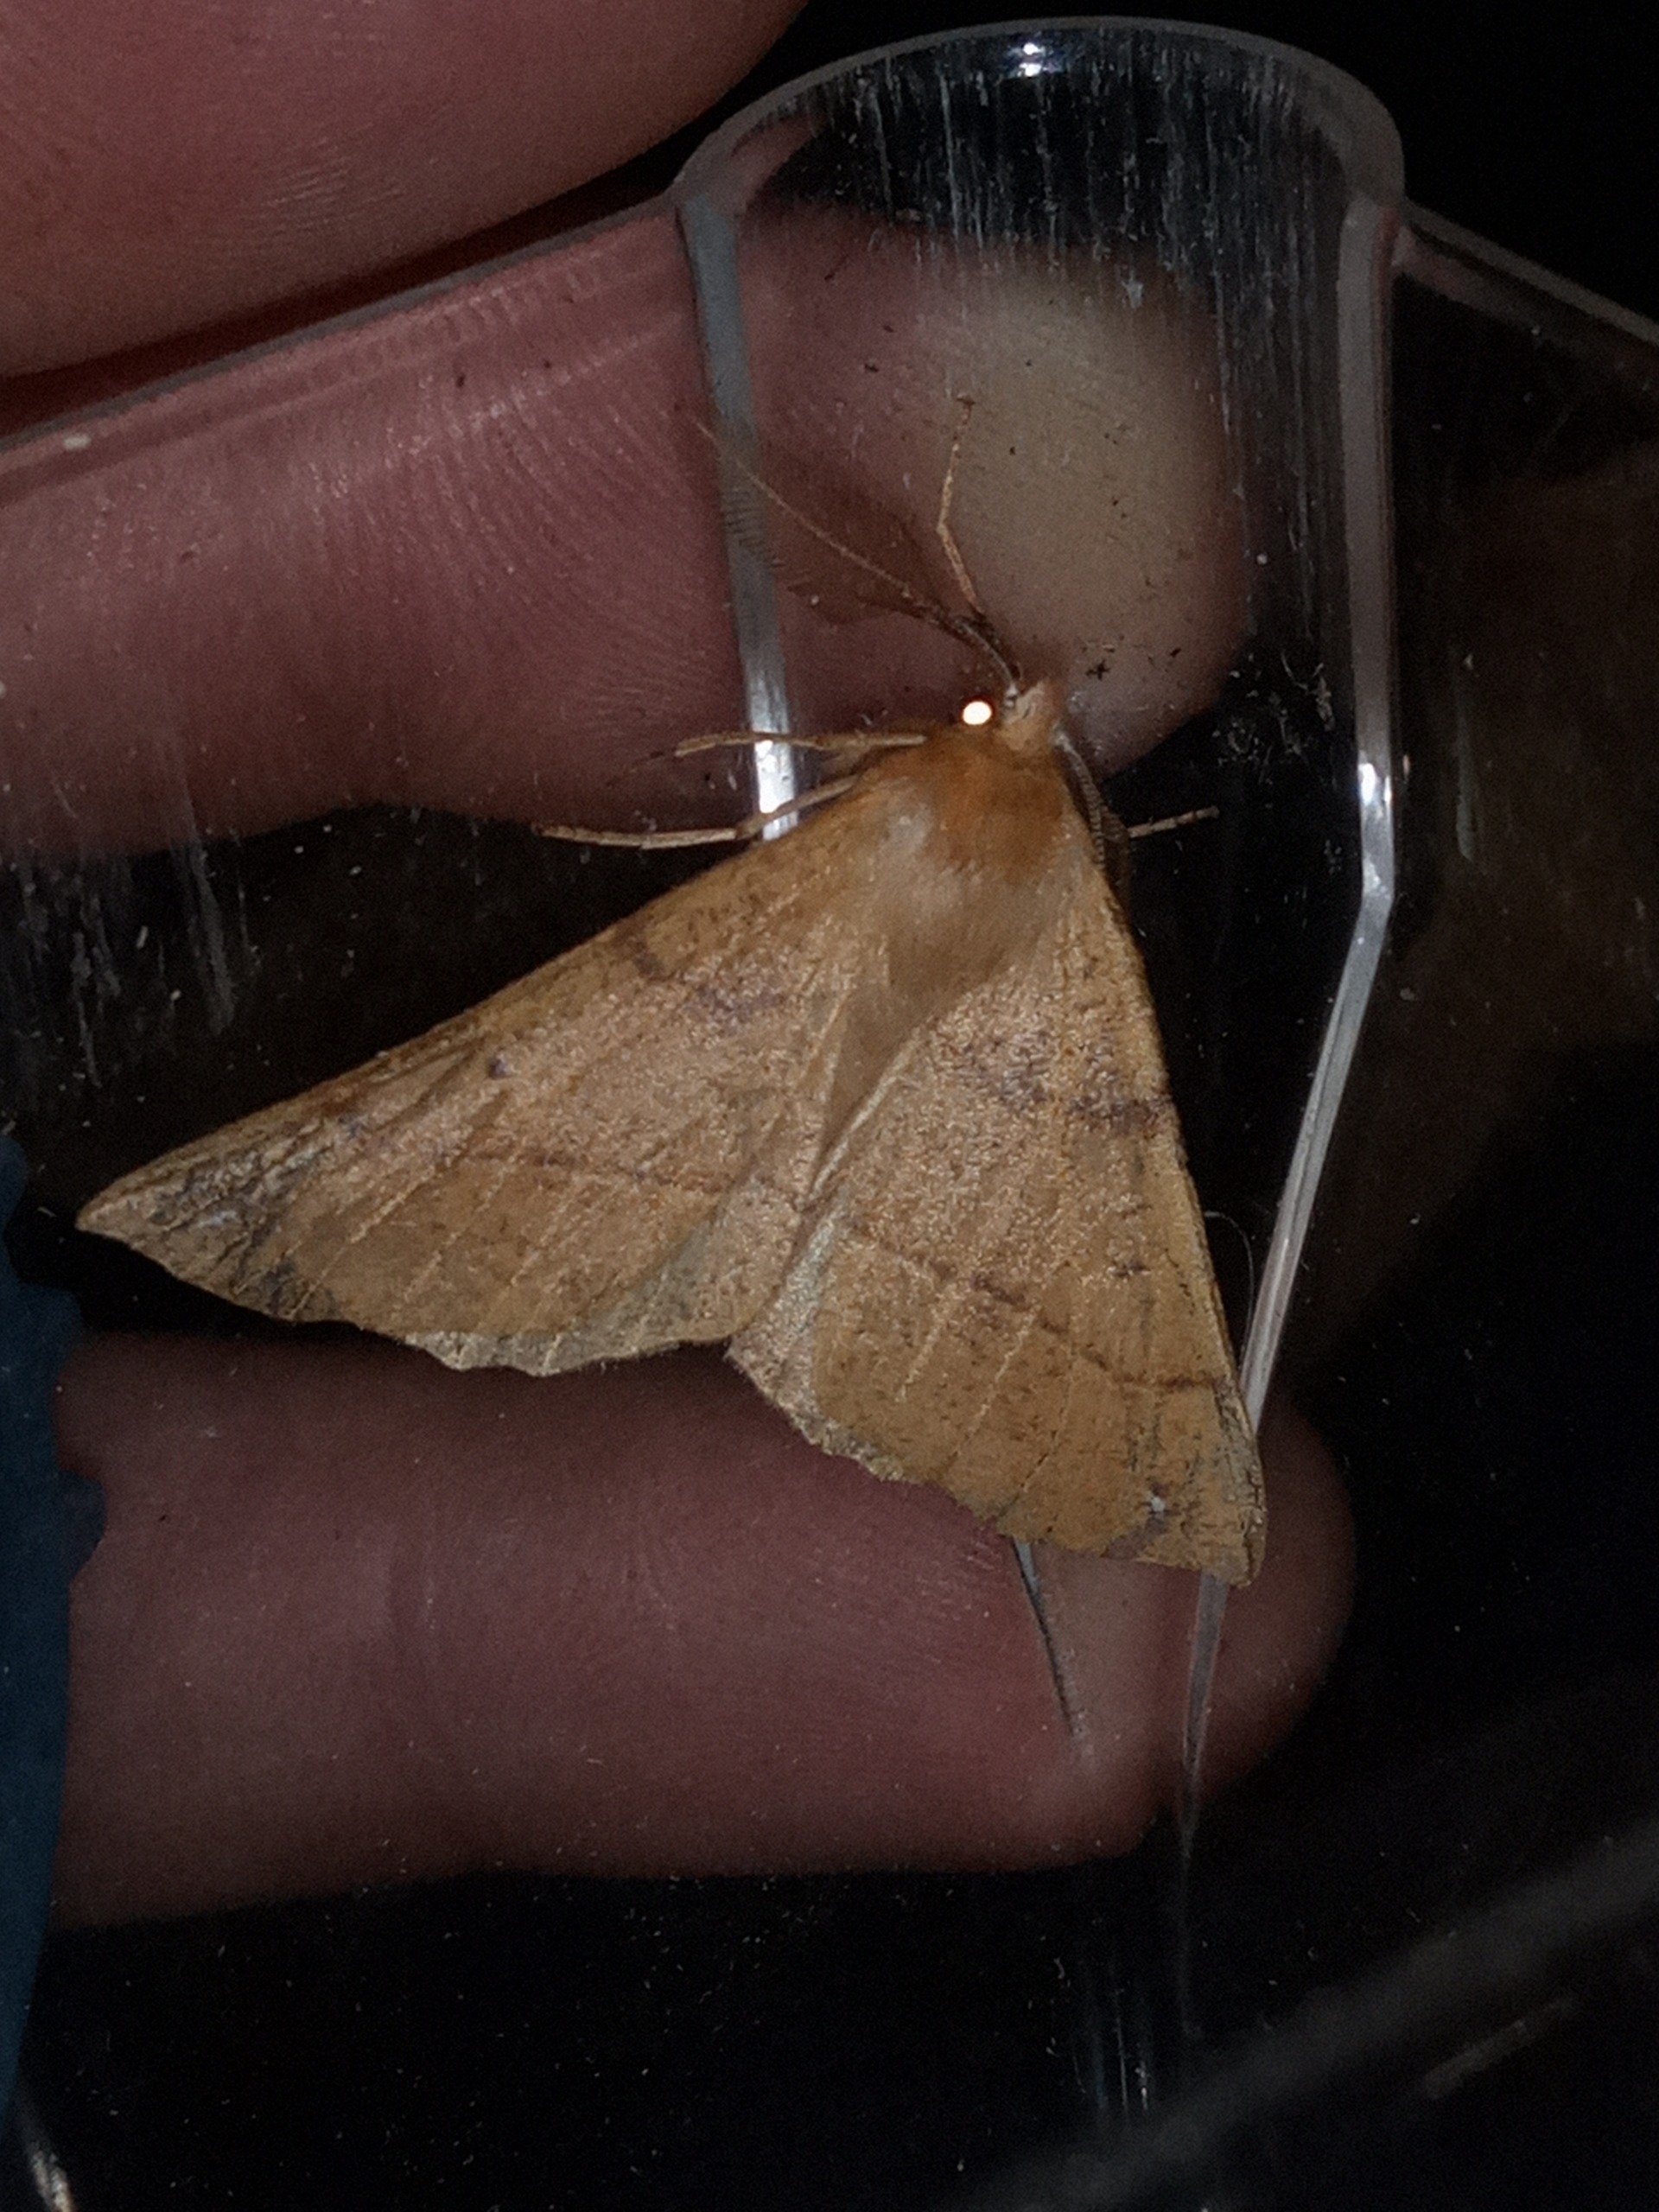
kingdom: Animalia
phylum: Arthropoda
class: Insecta
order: Lepidoptera
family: Geometridae
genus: Colotois
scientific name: Colotois pennaria
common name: Løvfaldsmåler
